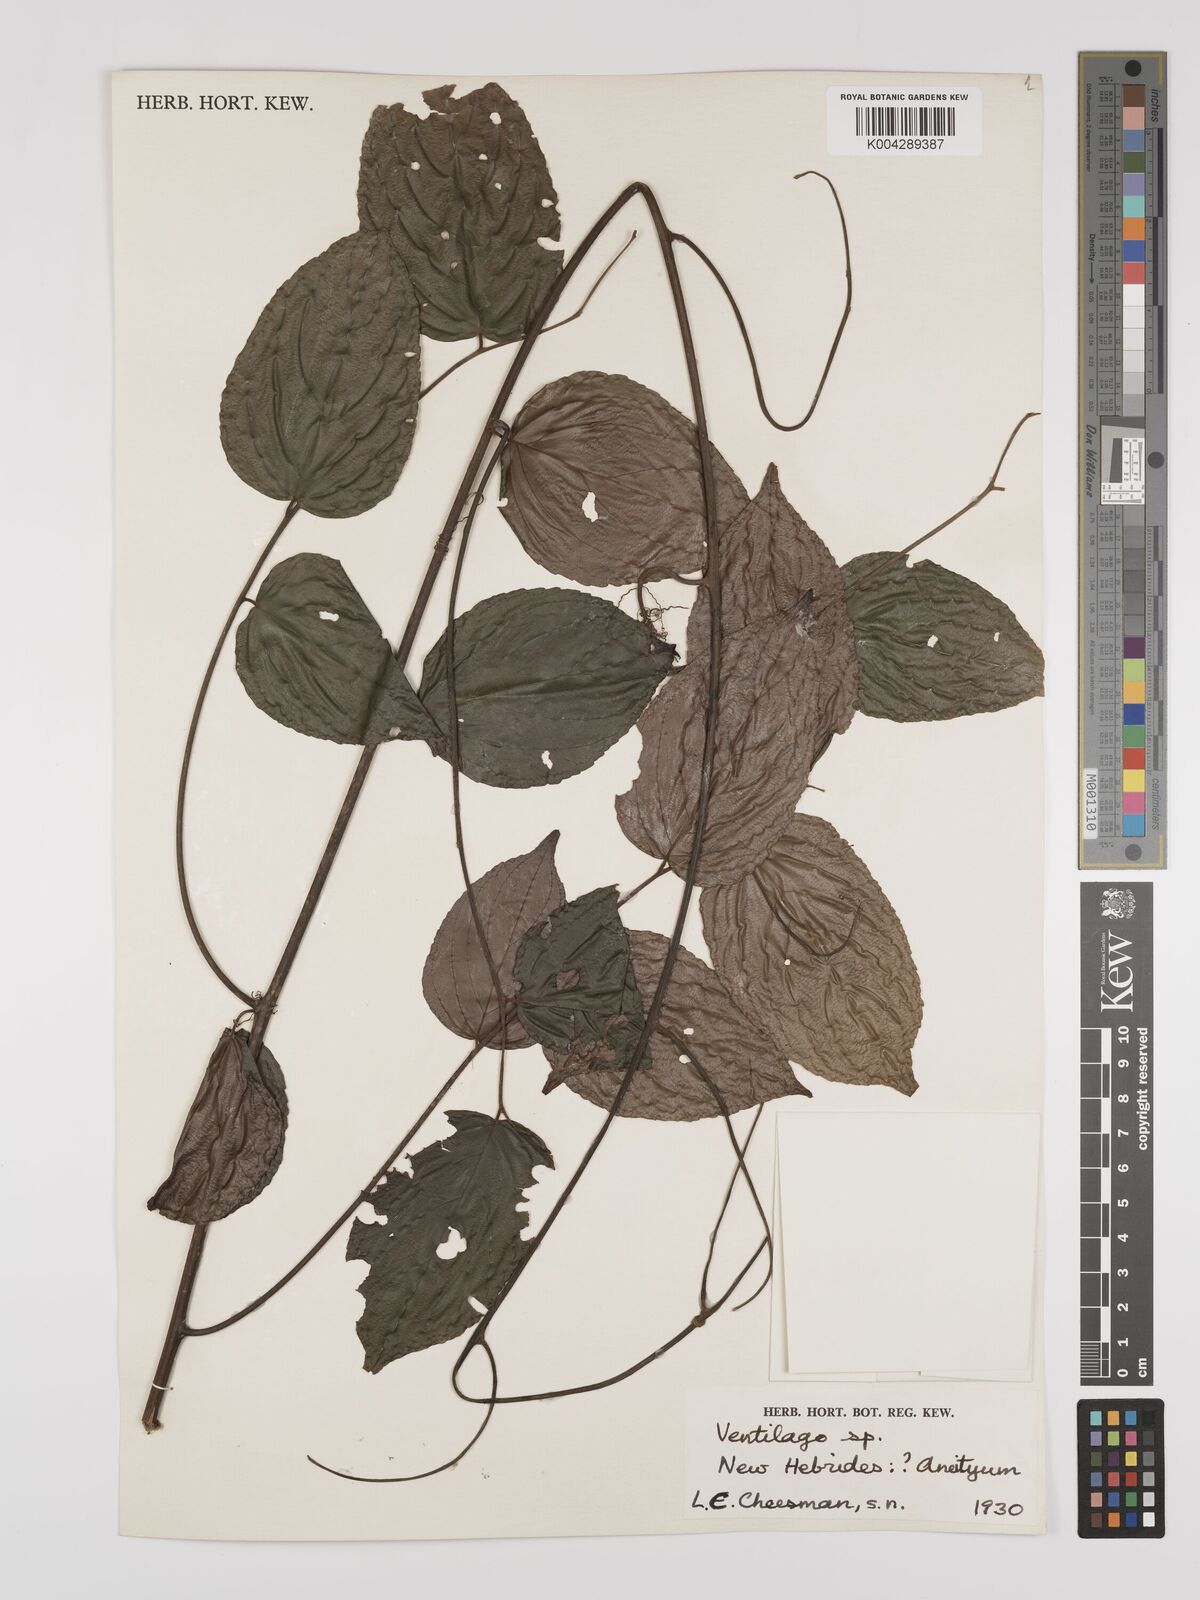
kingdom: Plantae
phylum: Tracheophyta
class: Magnoliopsida
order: Rosales
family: Rhamnaceae
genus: Ventilago
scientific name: Ventilago
